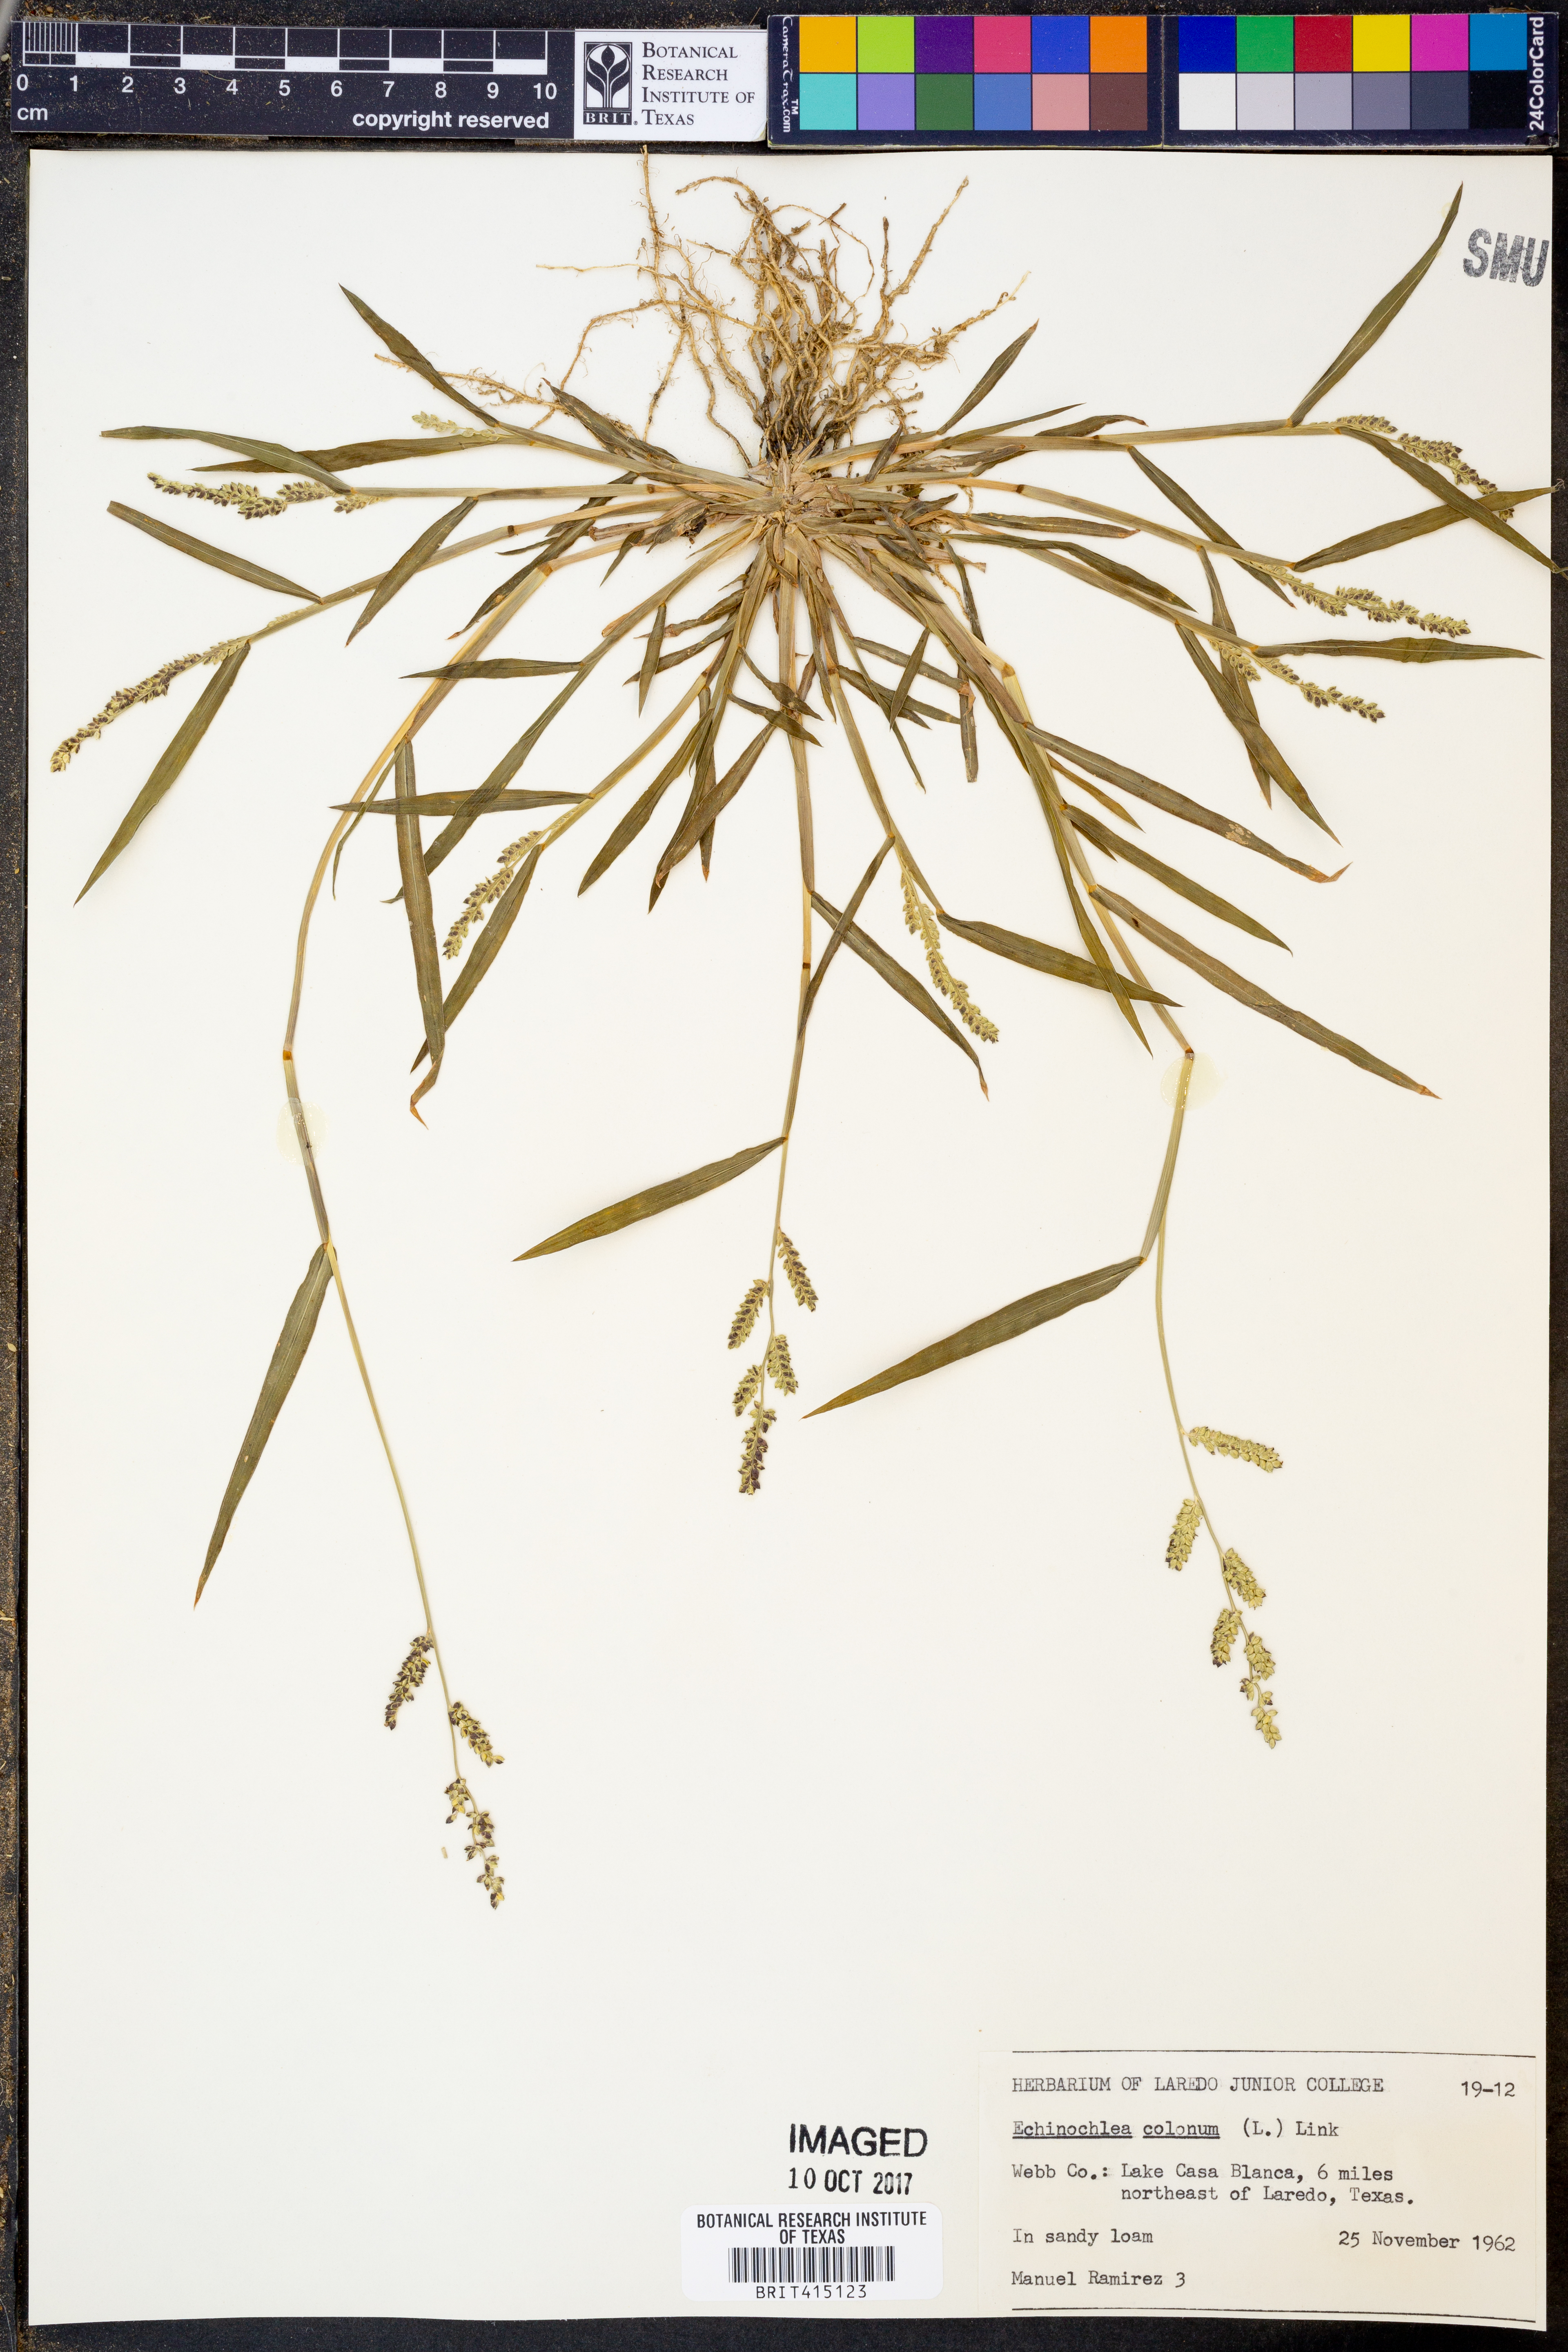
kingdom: Plantae
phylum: Tracheophyta
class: Liliopsida
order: Poales
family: Poaceae
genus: Echinochloa
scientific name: Echinochloa colonum
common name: Jungle rice
